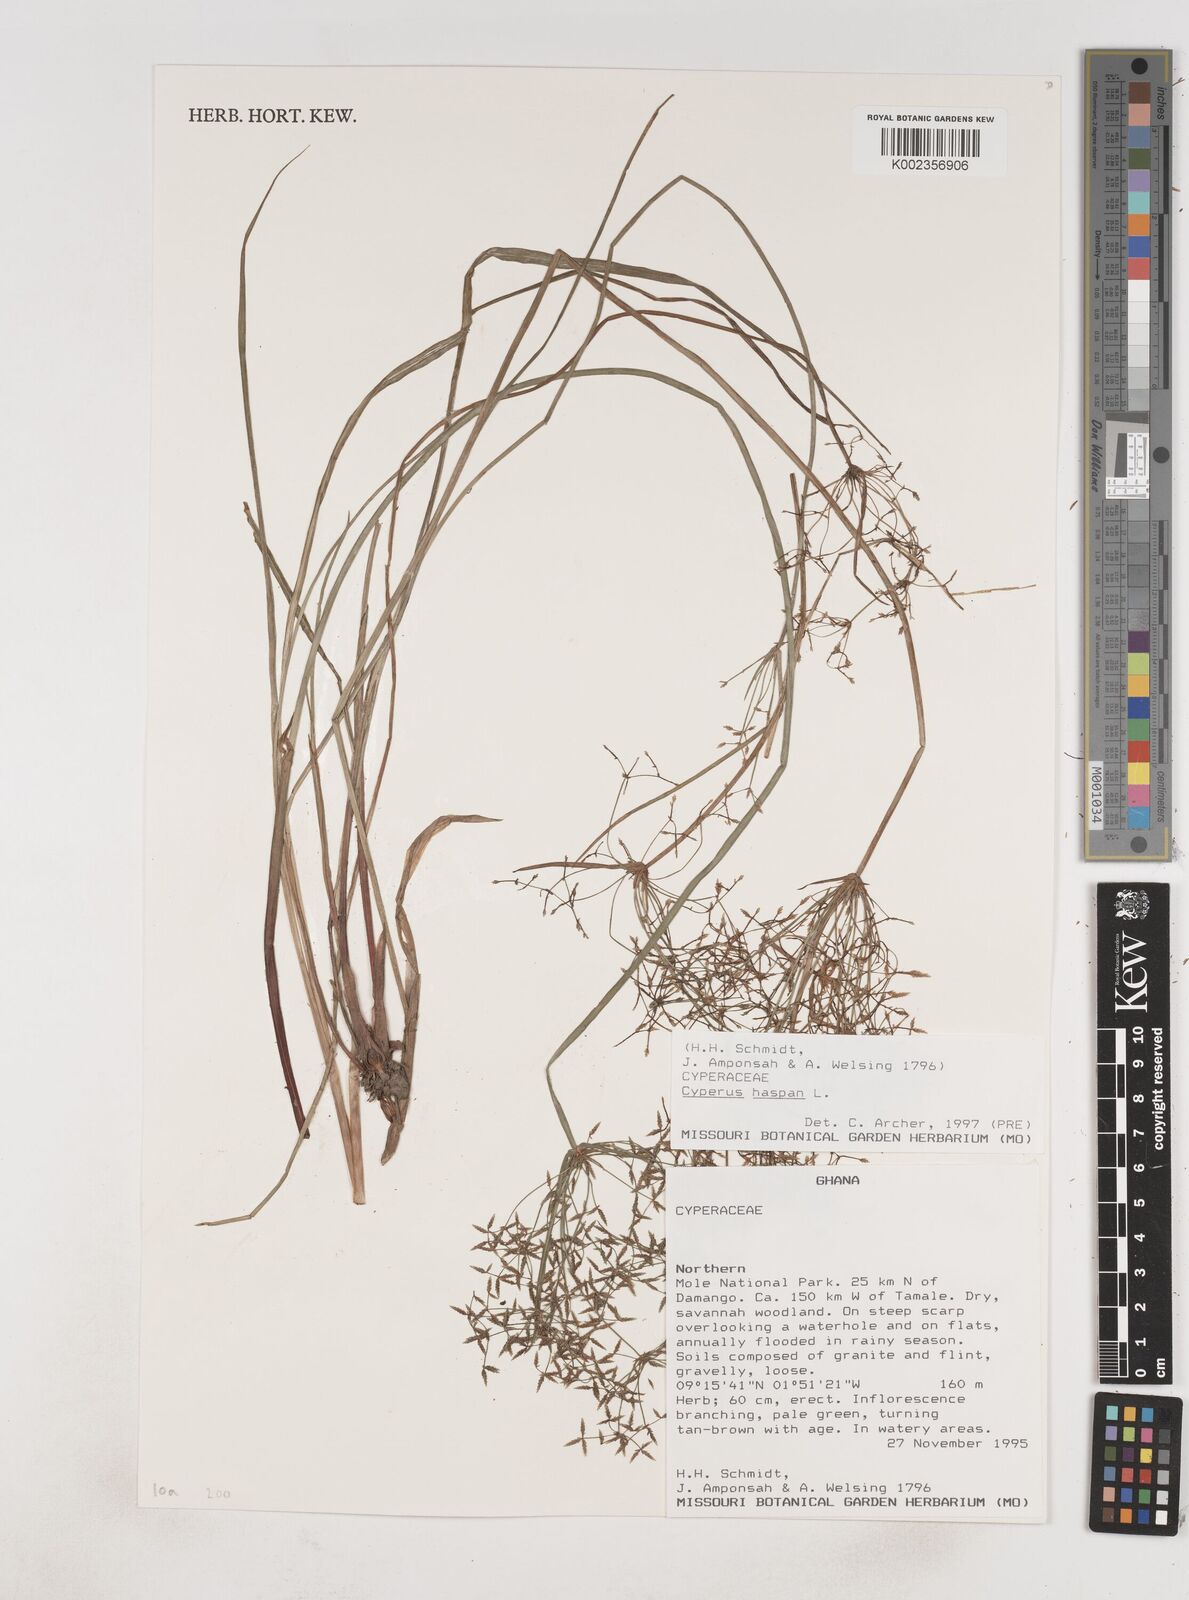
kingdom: Plantae
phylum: Tracheophyta
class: Liliopsida
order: Poales
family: Cyperaceae
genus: Cyperus
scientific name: Cyperus haspan
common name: Haspan flatsedge
